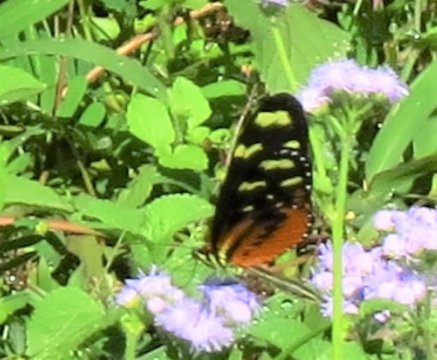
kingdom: Animalia
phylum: Arthropoda
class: Insecta
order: Lepidoptera
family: Nymphalidae
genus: Mechanitis
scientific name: Mechanitis polymnia
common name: Polymnia Tigerwing
